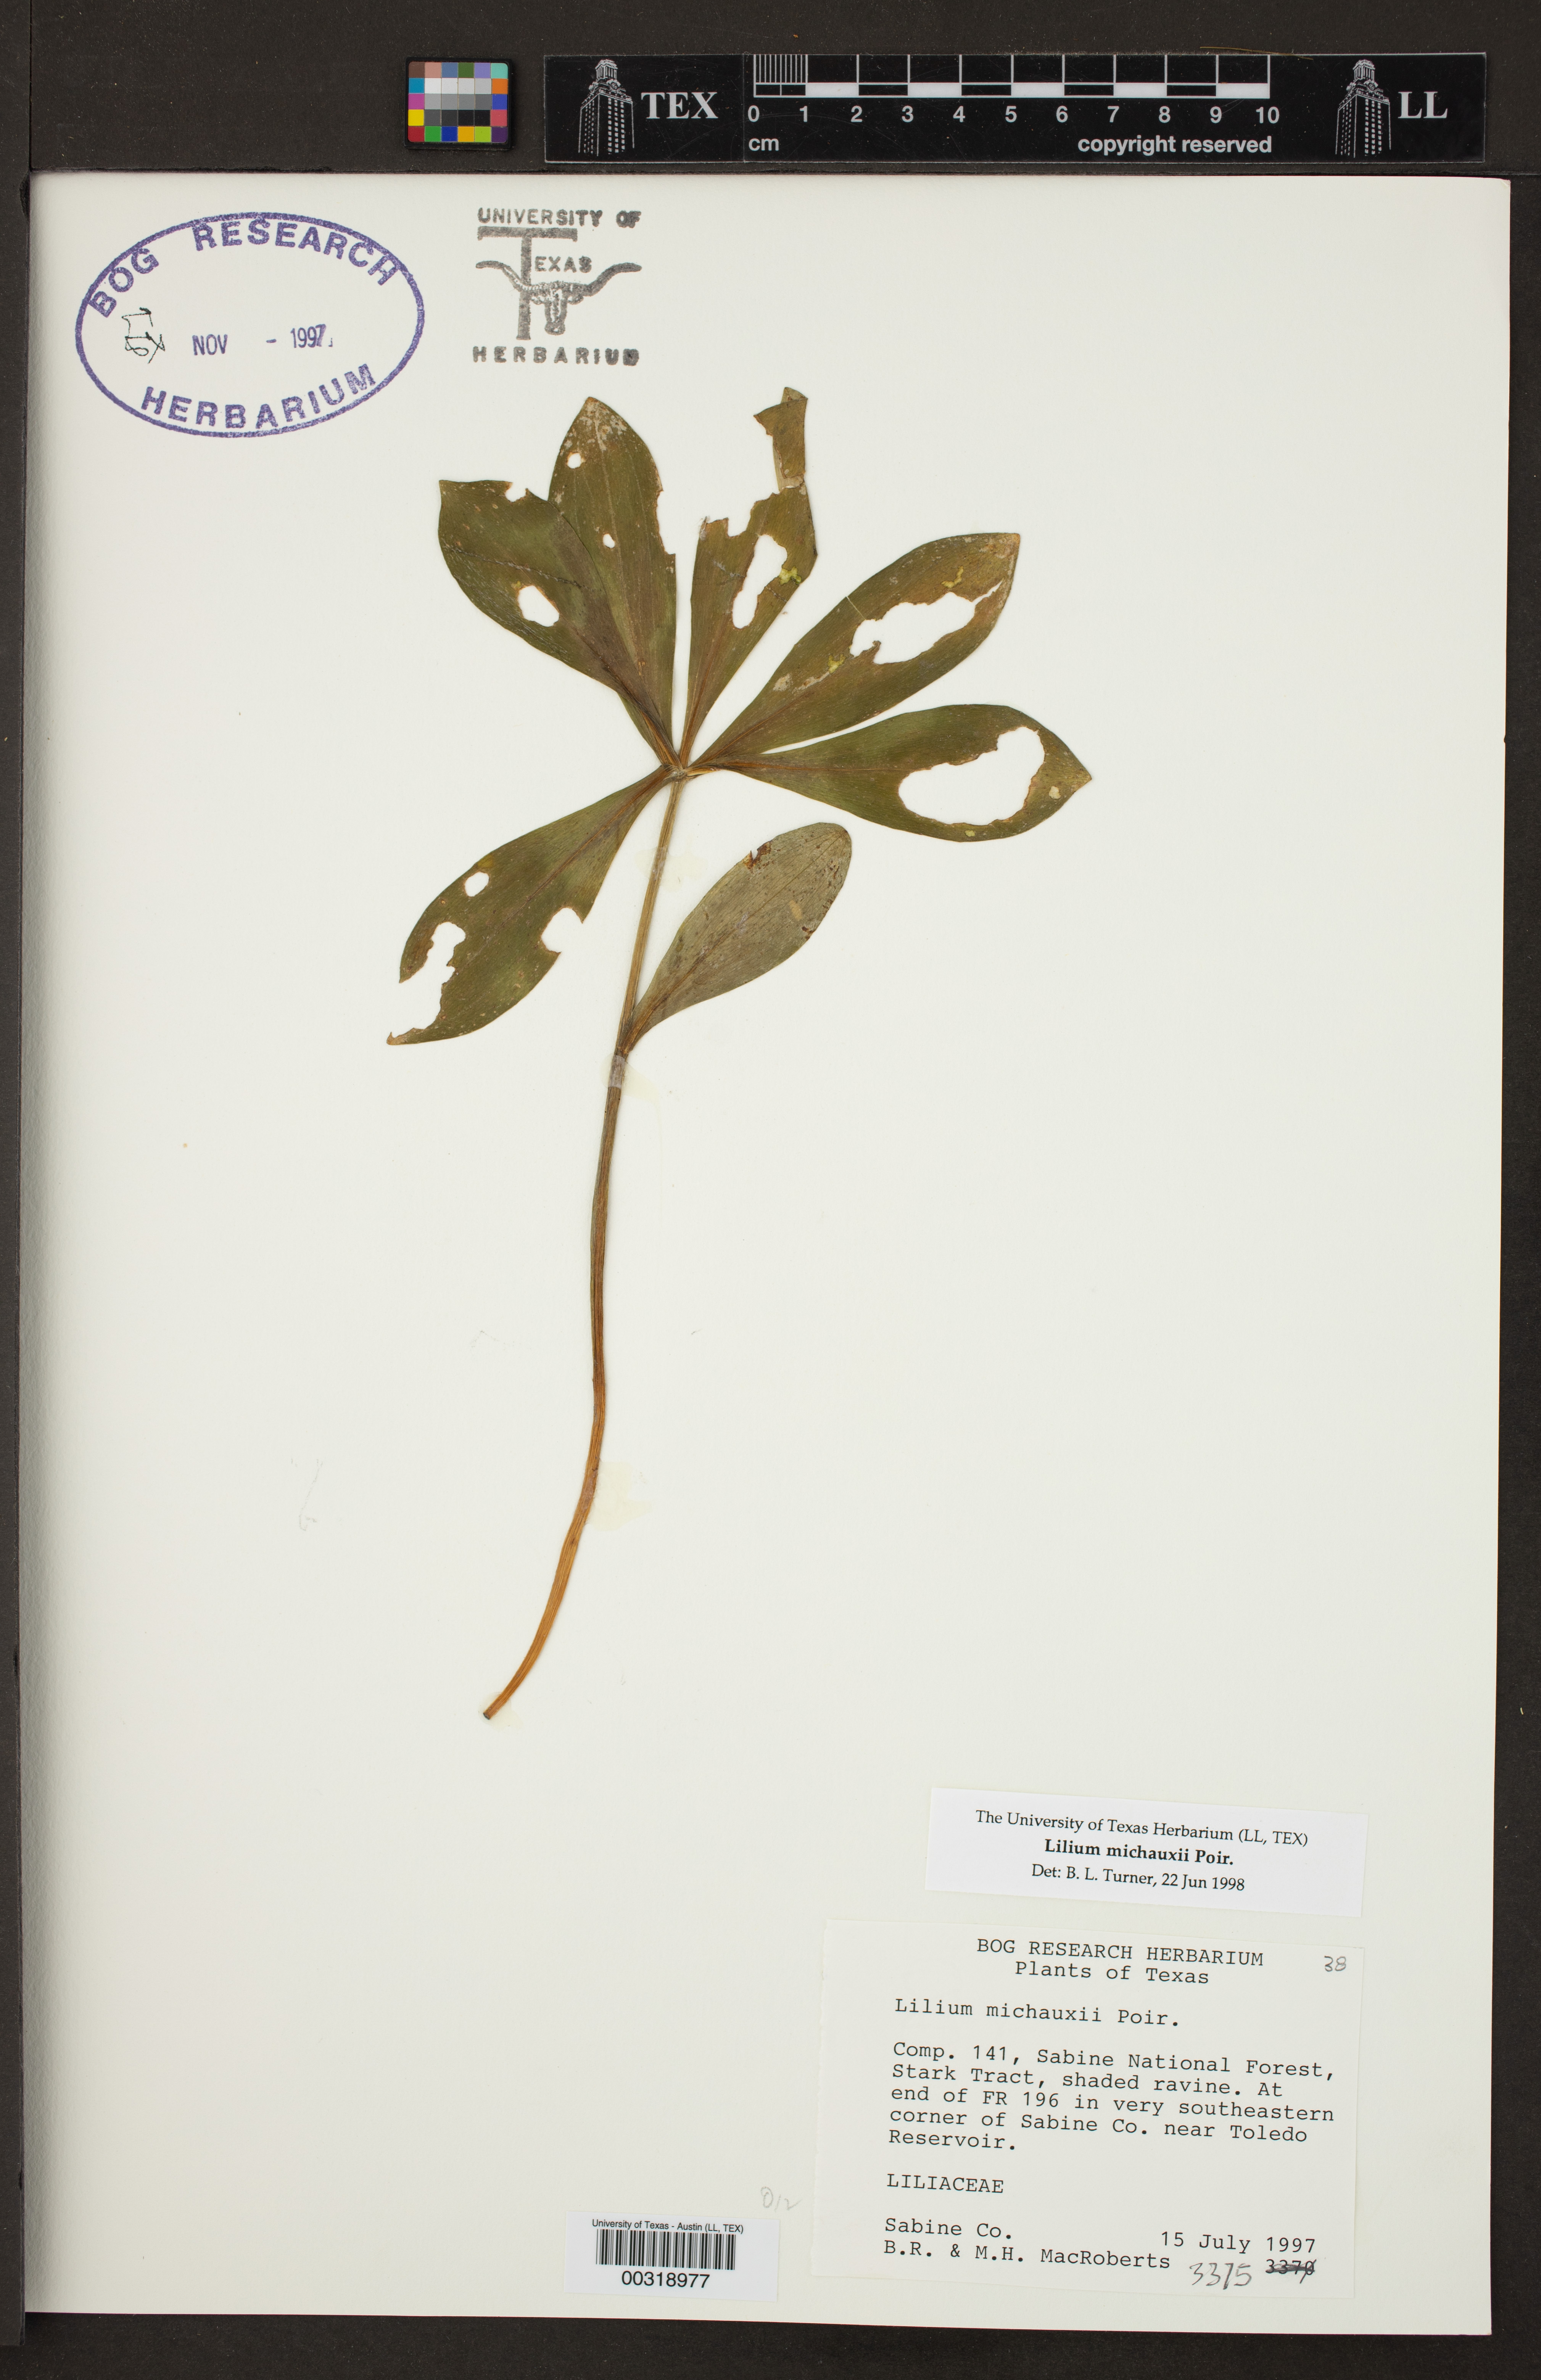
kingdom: Plantae
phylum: Tracheophyta
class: Liliopsida
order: Liliales
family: Liliaceae
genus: Lilium
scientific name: Lilium michauxii
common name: Carolina lily
